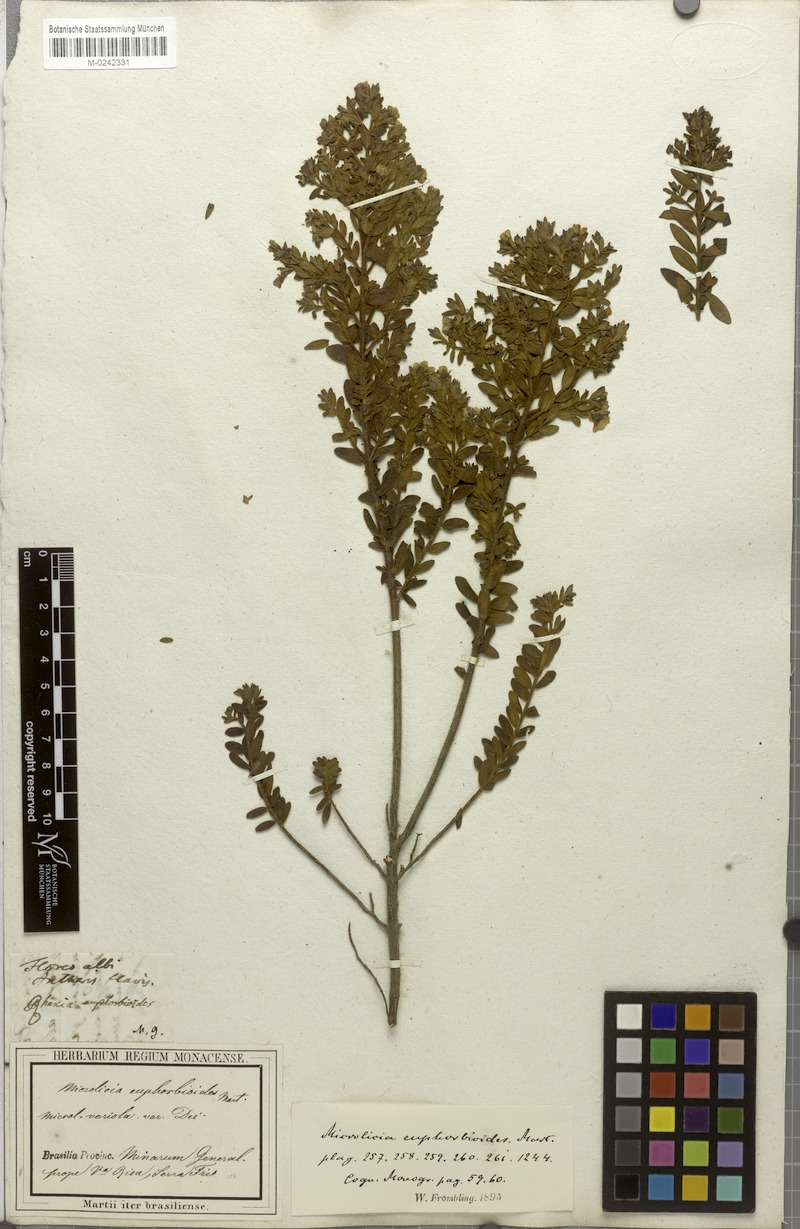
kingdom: Plantae
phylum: Tracheophyta
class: Magnoliopsida
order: Myrtales
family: Melastomataceae
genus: Microlicia
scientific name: Microlicia euphorbioides
